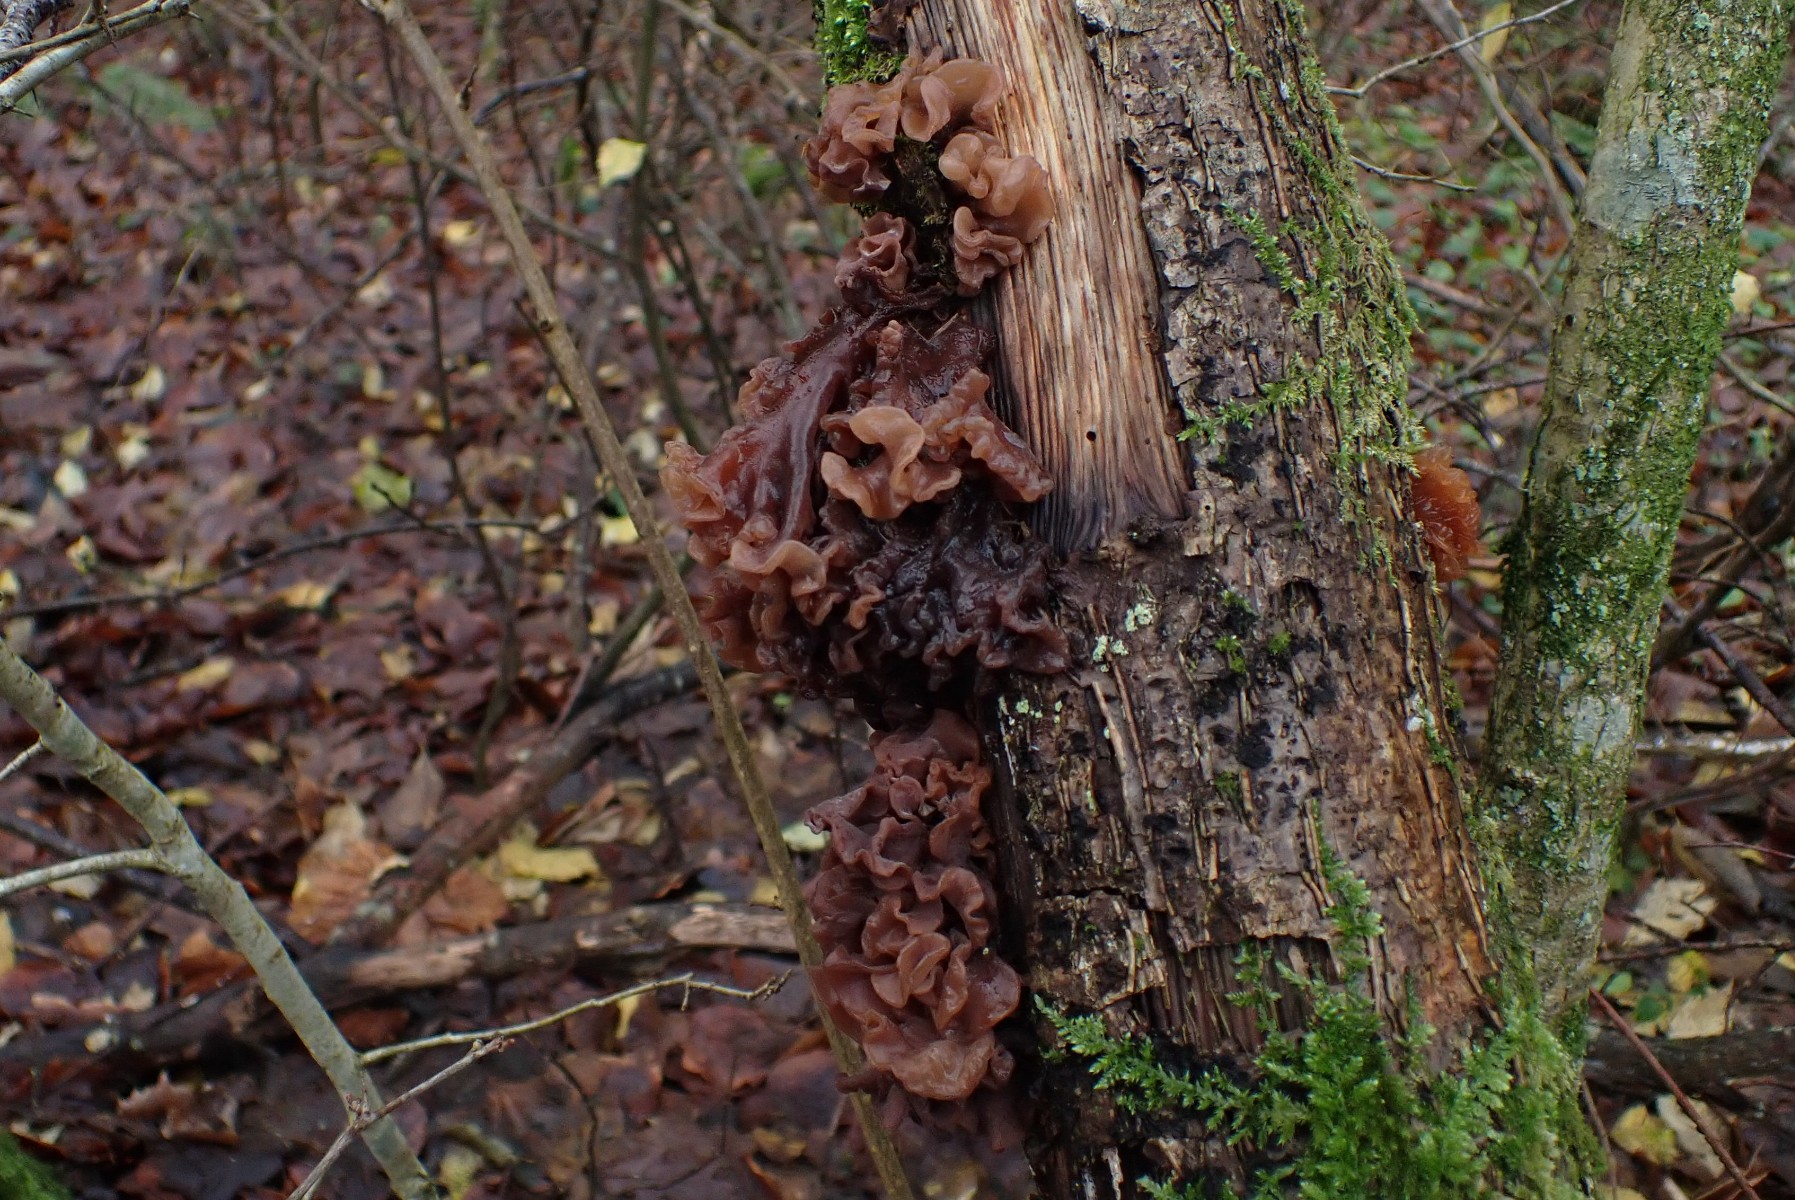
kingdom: Fungi
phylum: Basidiomycota
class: Tremellomycetes
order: Tremellales
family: Tremellaceae
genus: Phaeotremella
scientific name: Phaeotremella frondosa
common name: kæmpe-bævresvamp
